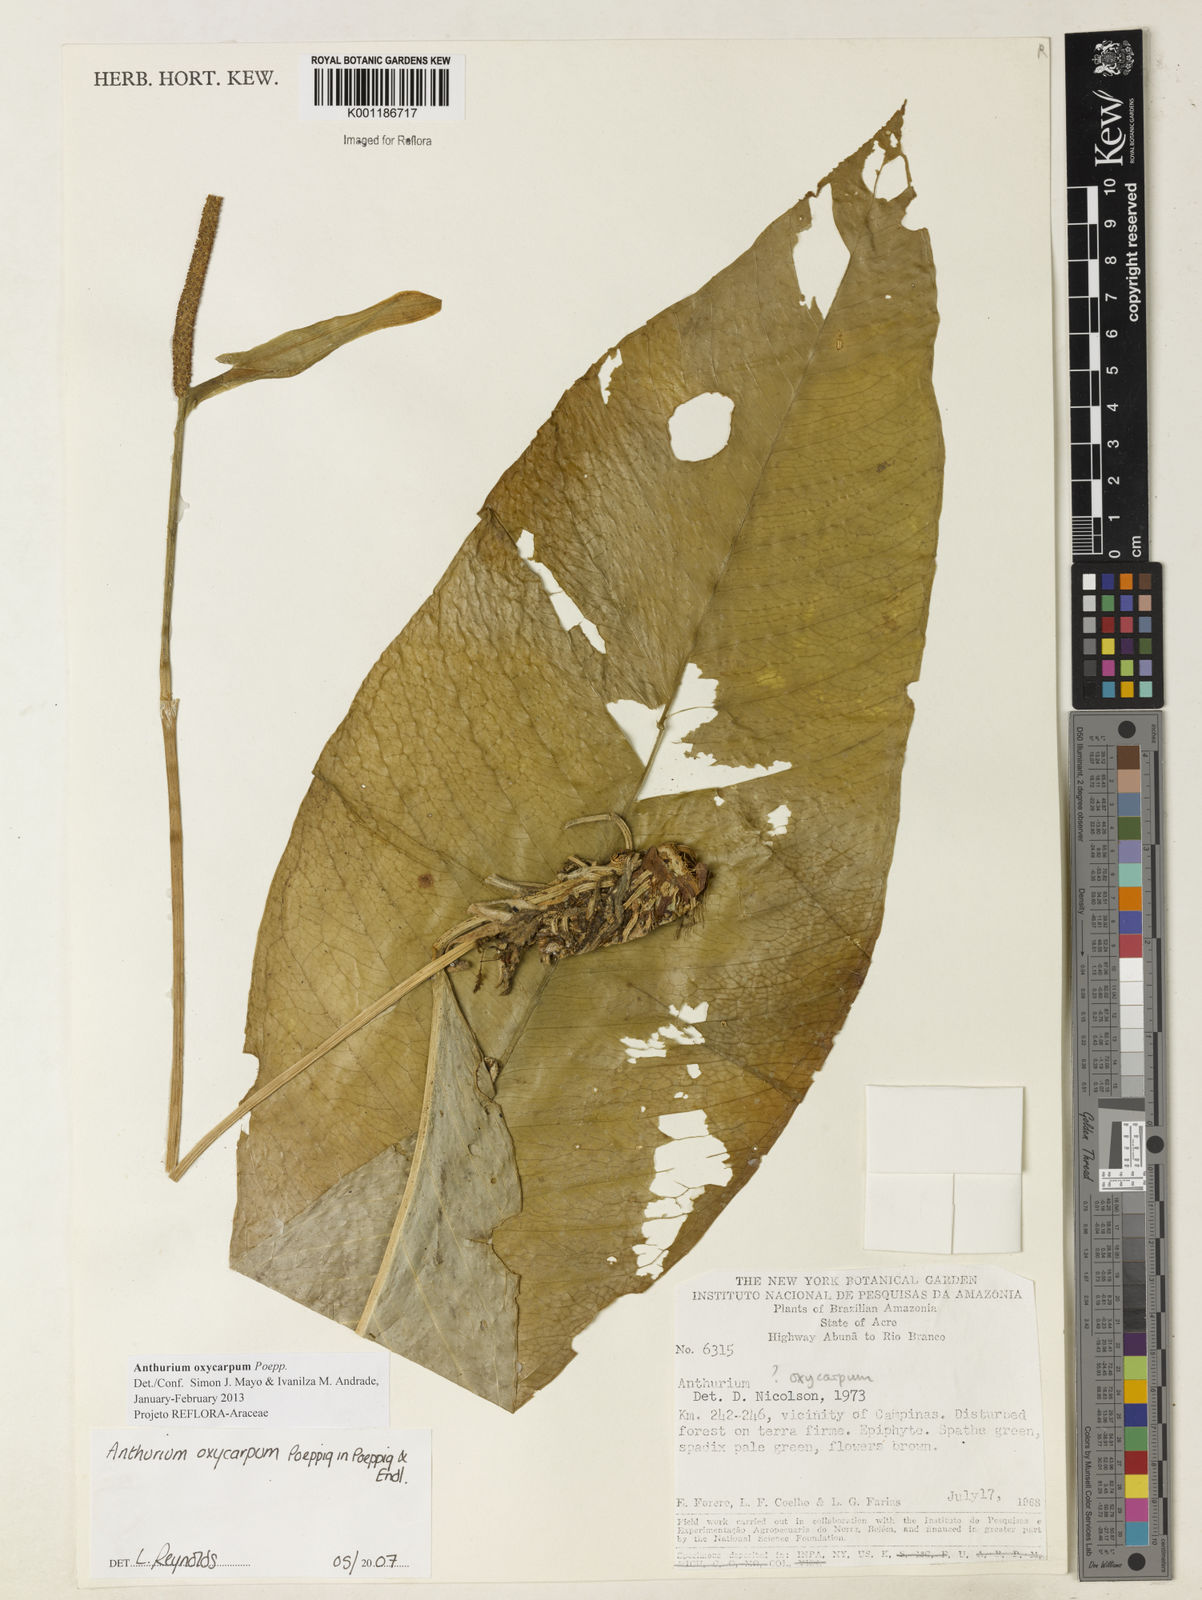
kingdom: Plantae
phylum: Tracheophyta
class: Liliopsida
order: Alismatales
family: Araceae
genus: Anthurium
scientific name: Anthurium oxycarpum
